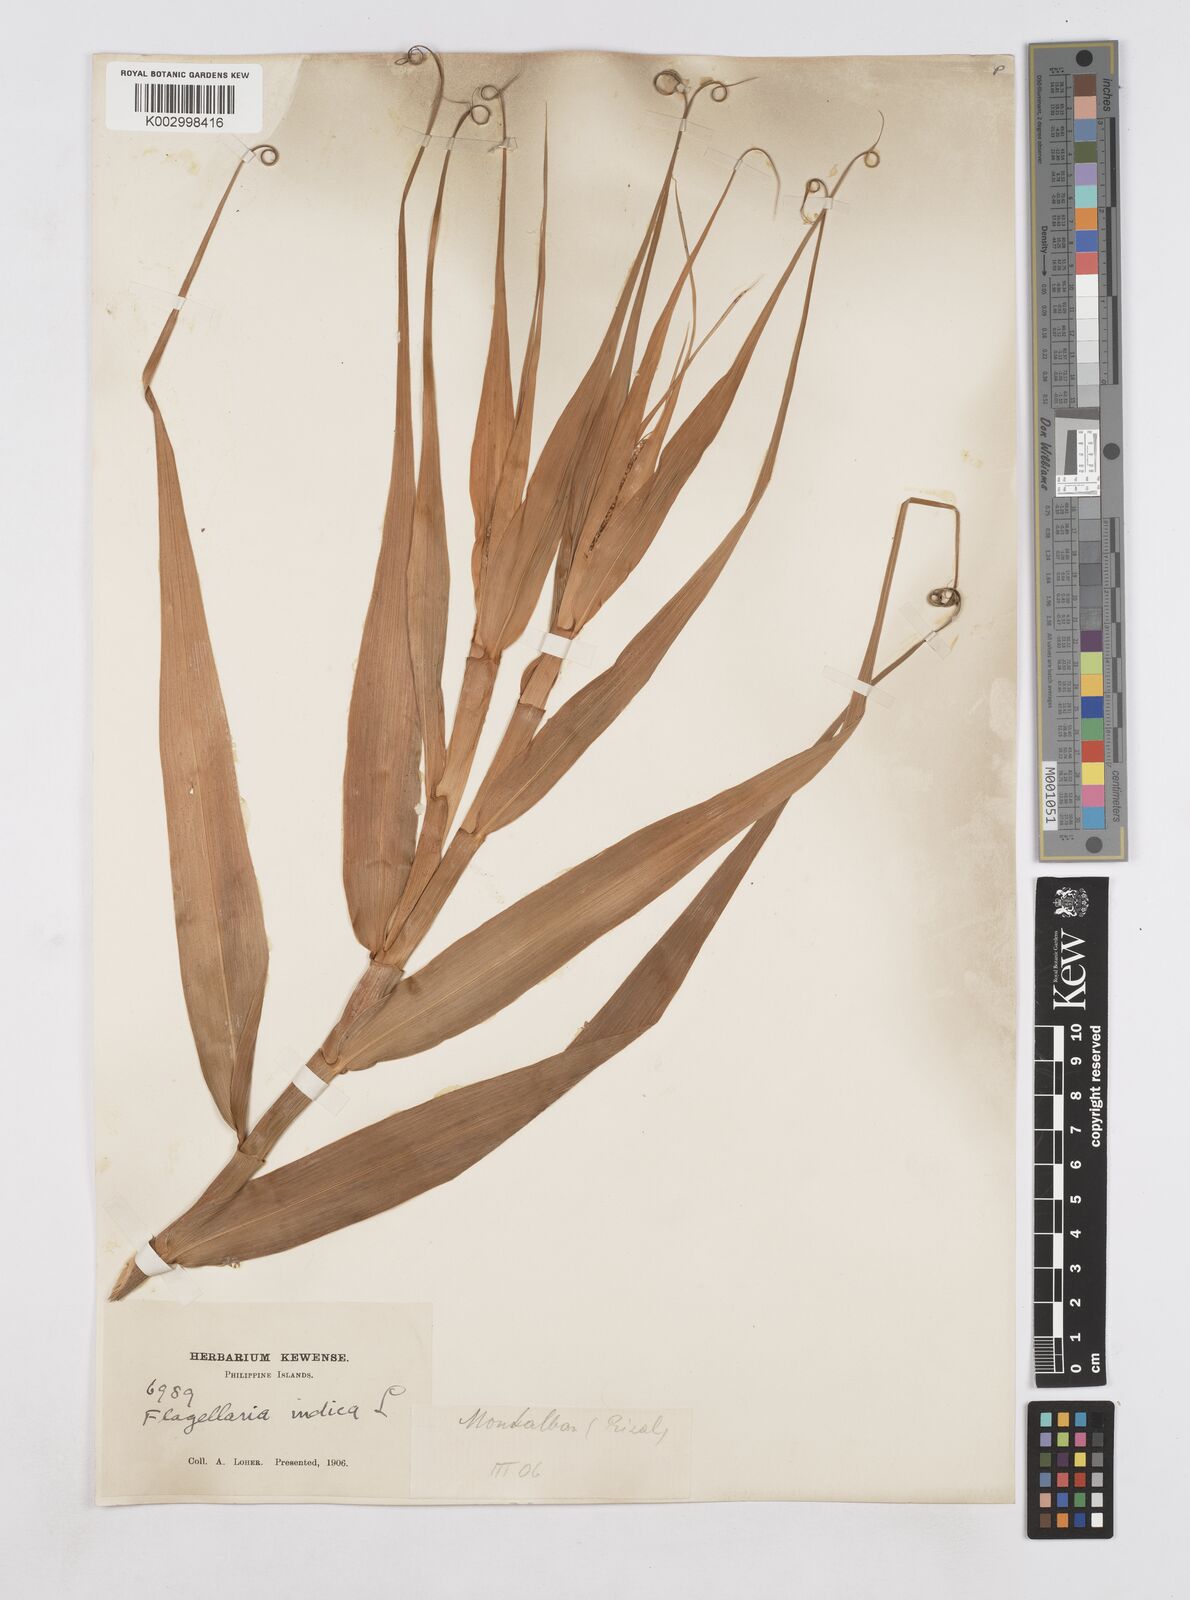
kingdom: Plantae
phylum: Tracheophyta
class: Liliopsida
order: Poales
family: Flagellariaceae
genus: Flagellaria
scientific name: Flagellaria indica
